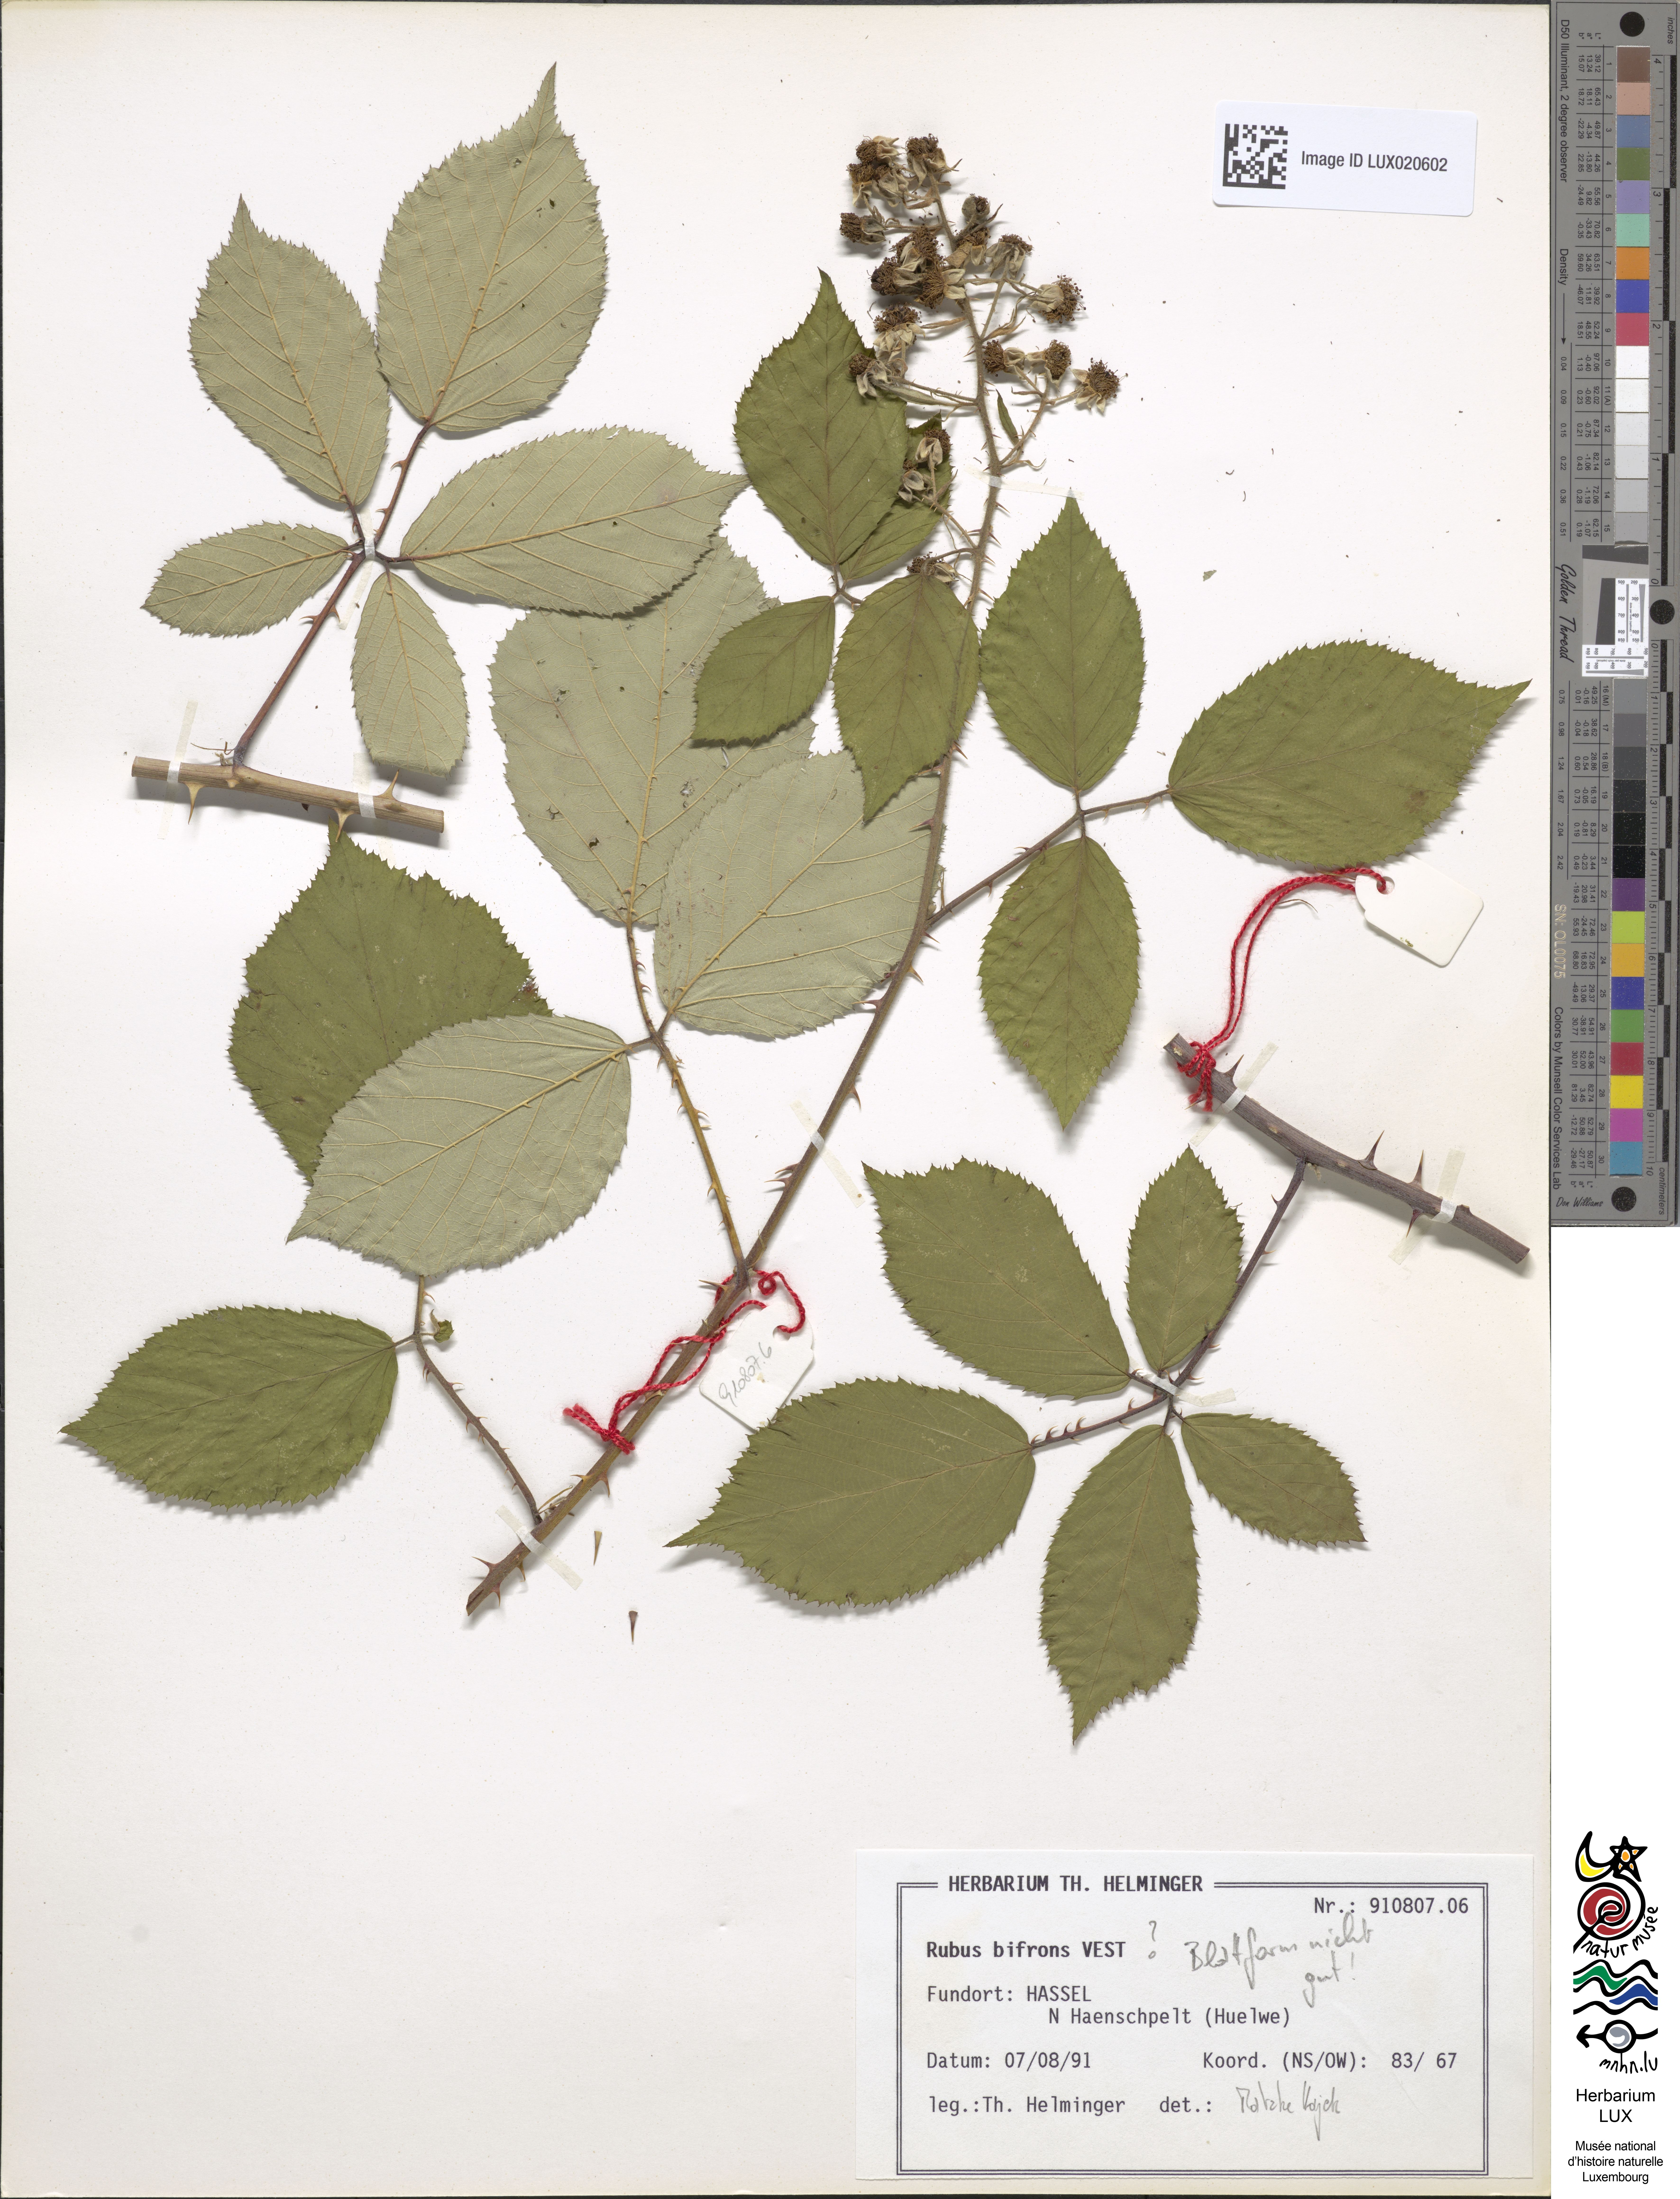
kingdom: Plantae
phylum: Tracheophyta
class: Magnoliopsida
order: Rosales
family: Rosaceae
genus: Rubus
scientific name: Rubus bifrons
